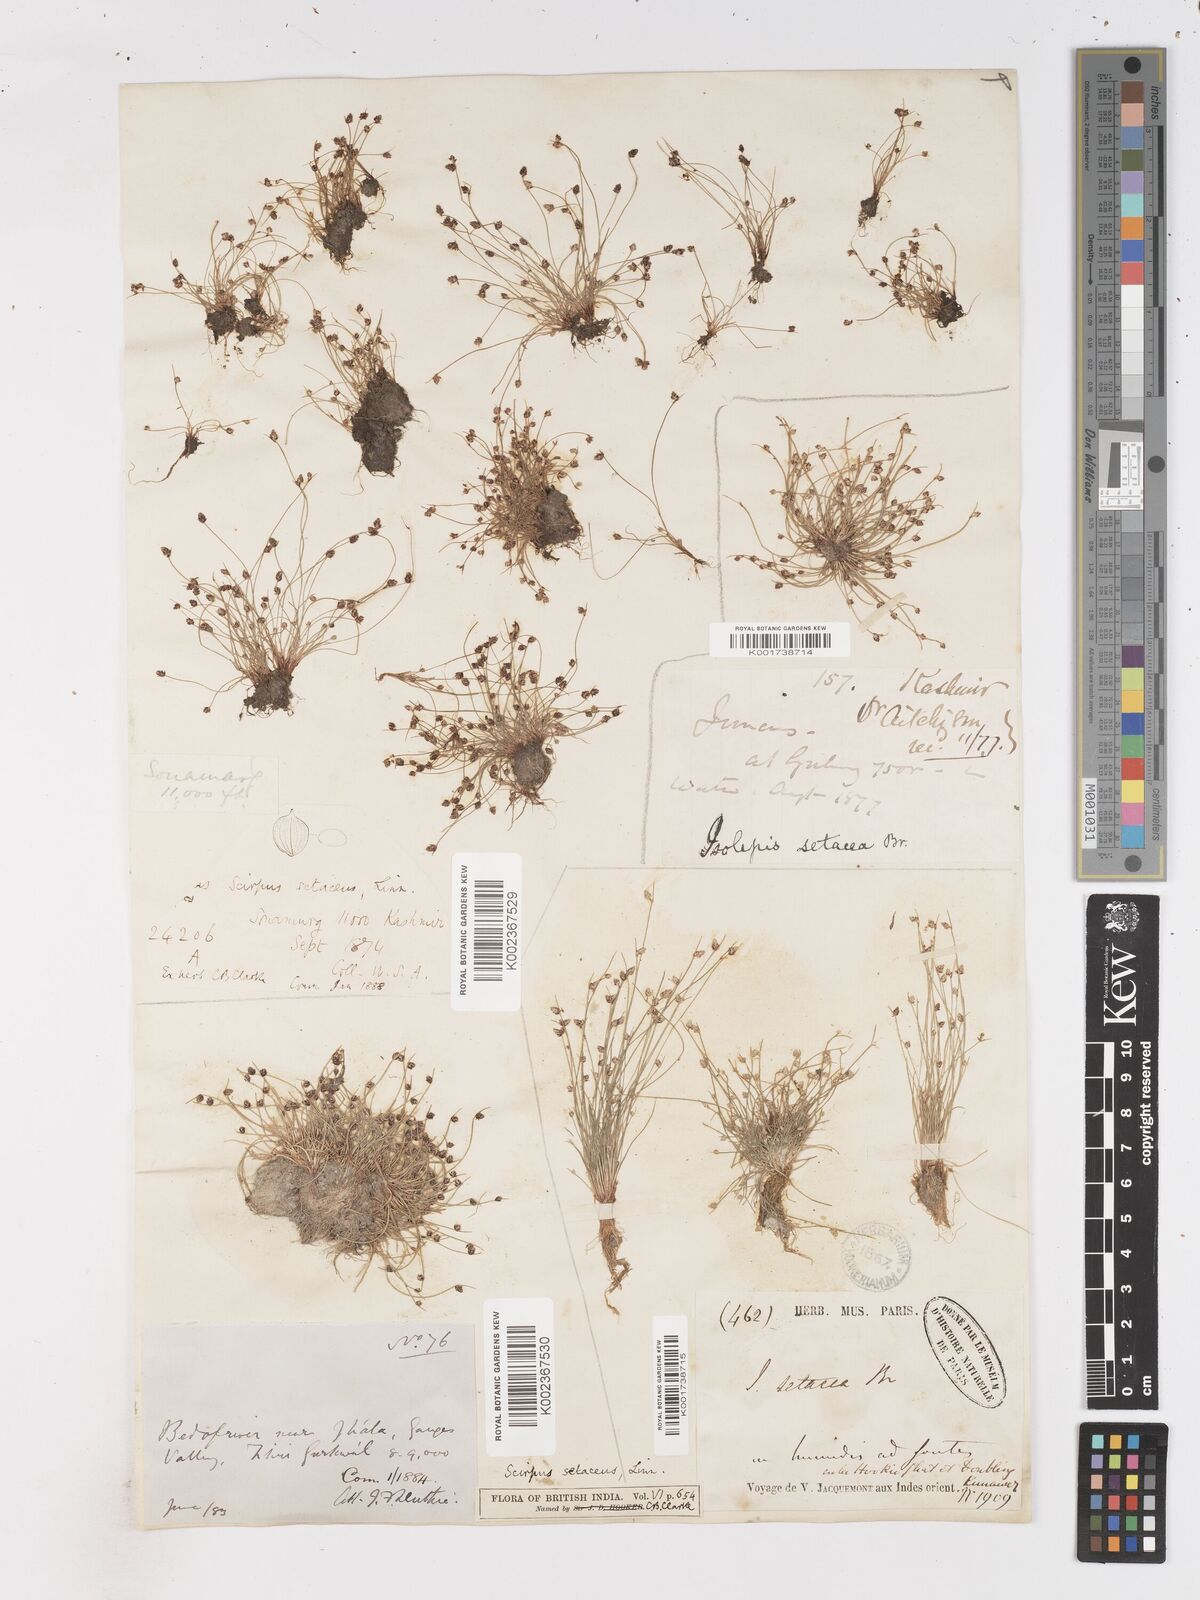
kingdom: Plantae
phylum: Tracheophyta
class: Liliopsida
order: Poales
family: Cyperaceae
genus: Isolepis
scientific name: Isolepis setacea
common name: Bristle club-rush
